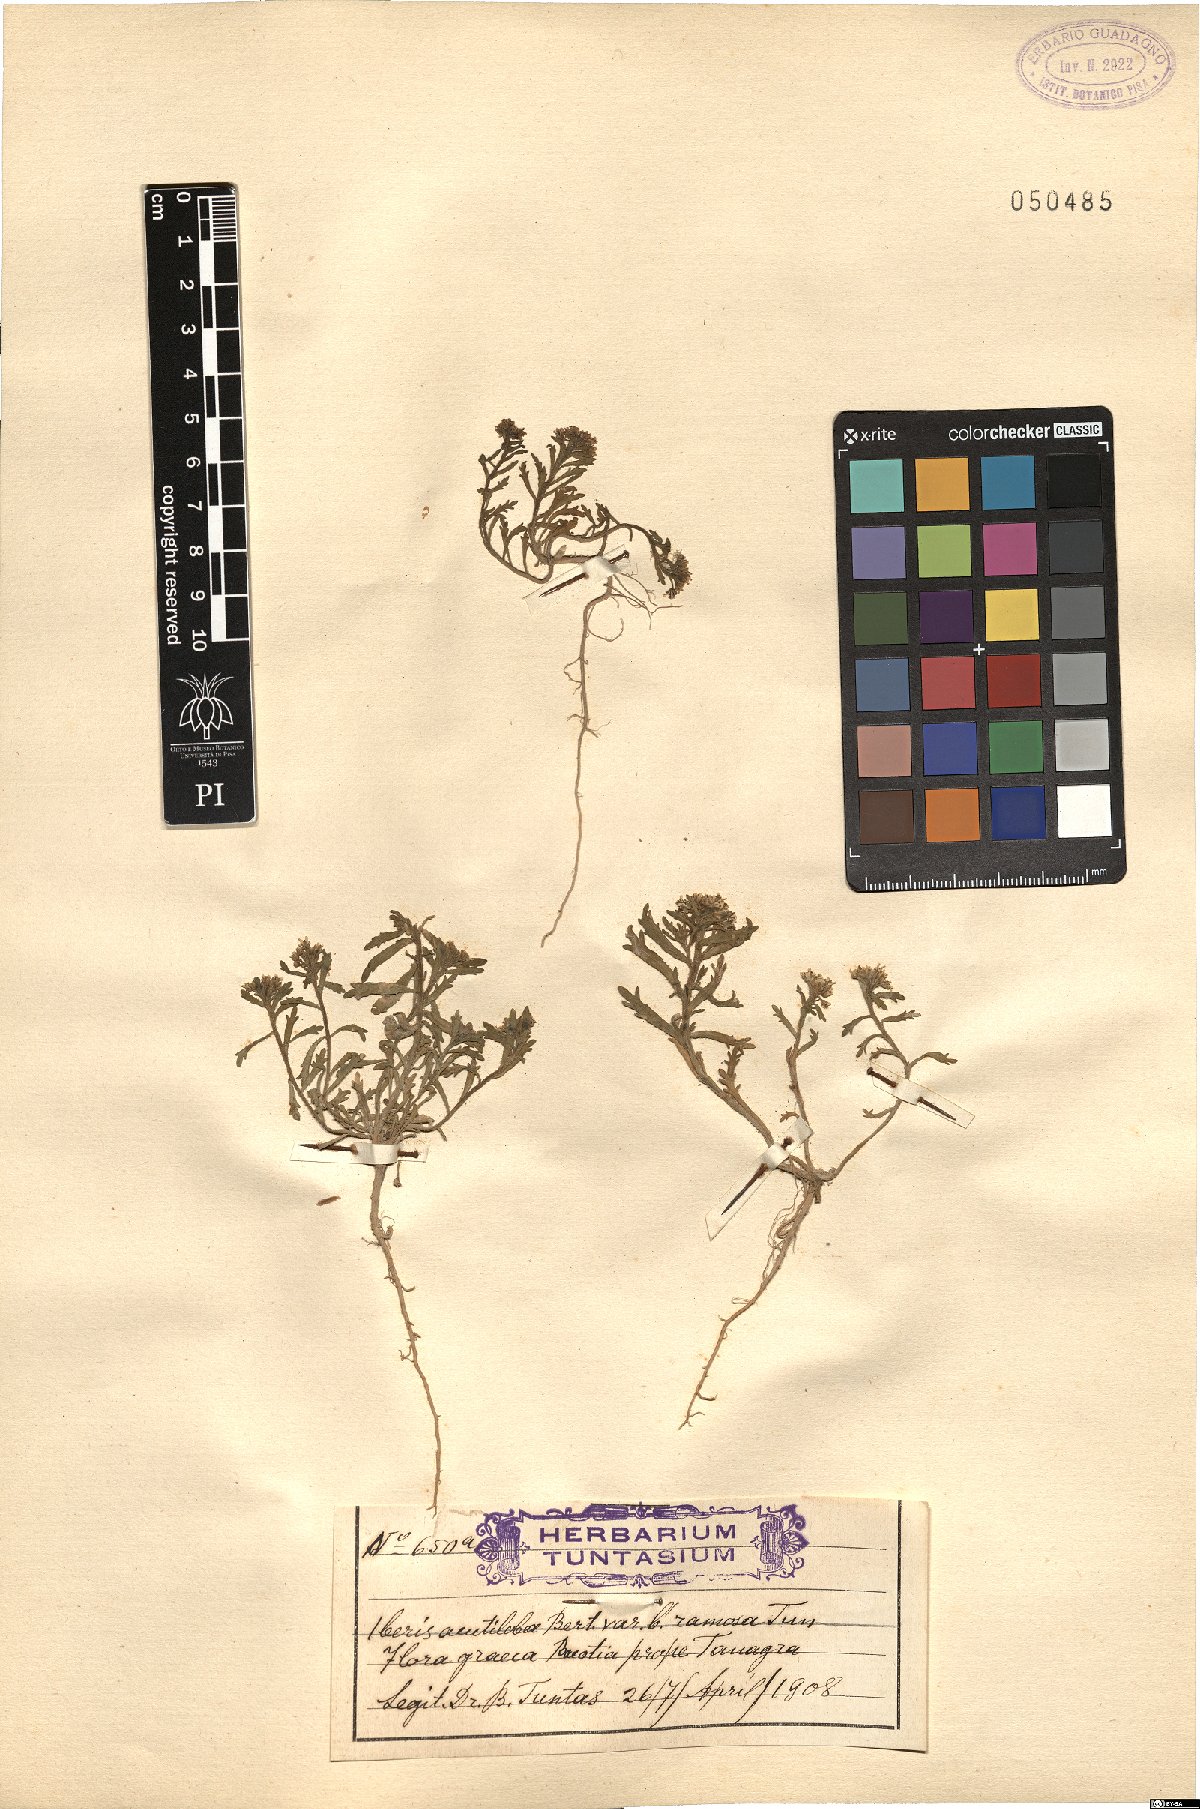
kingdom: Plantae
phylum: Tracheophyta
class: Magnoliopsida
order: Brassicales
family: Brassicaceae
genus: Iberis
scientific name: Iberis odorata
